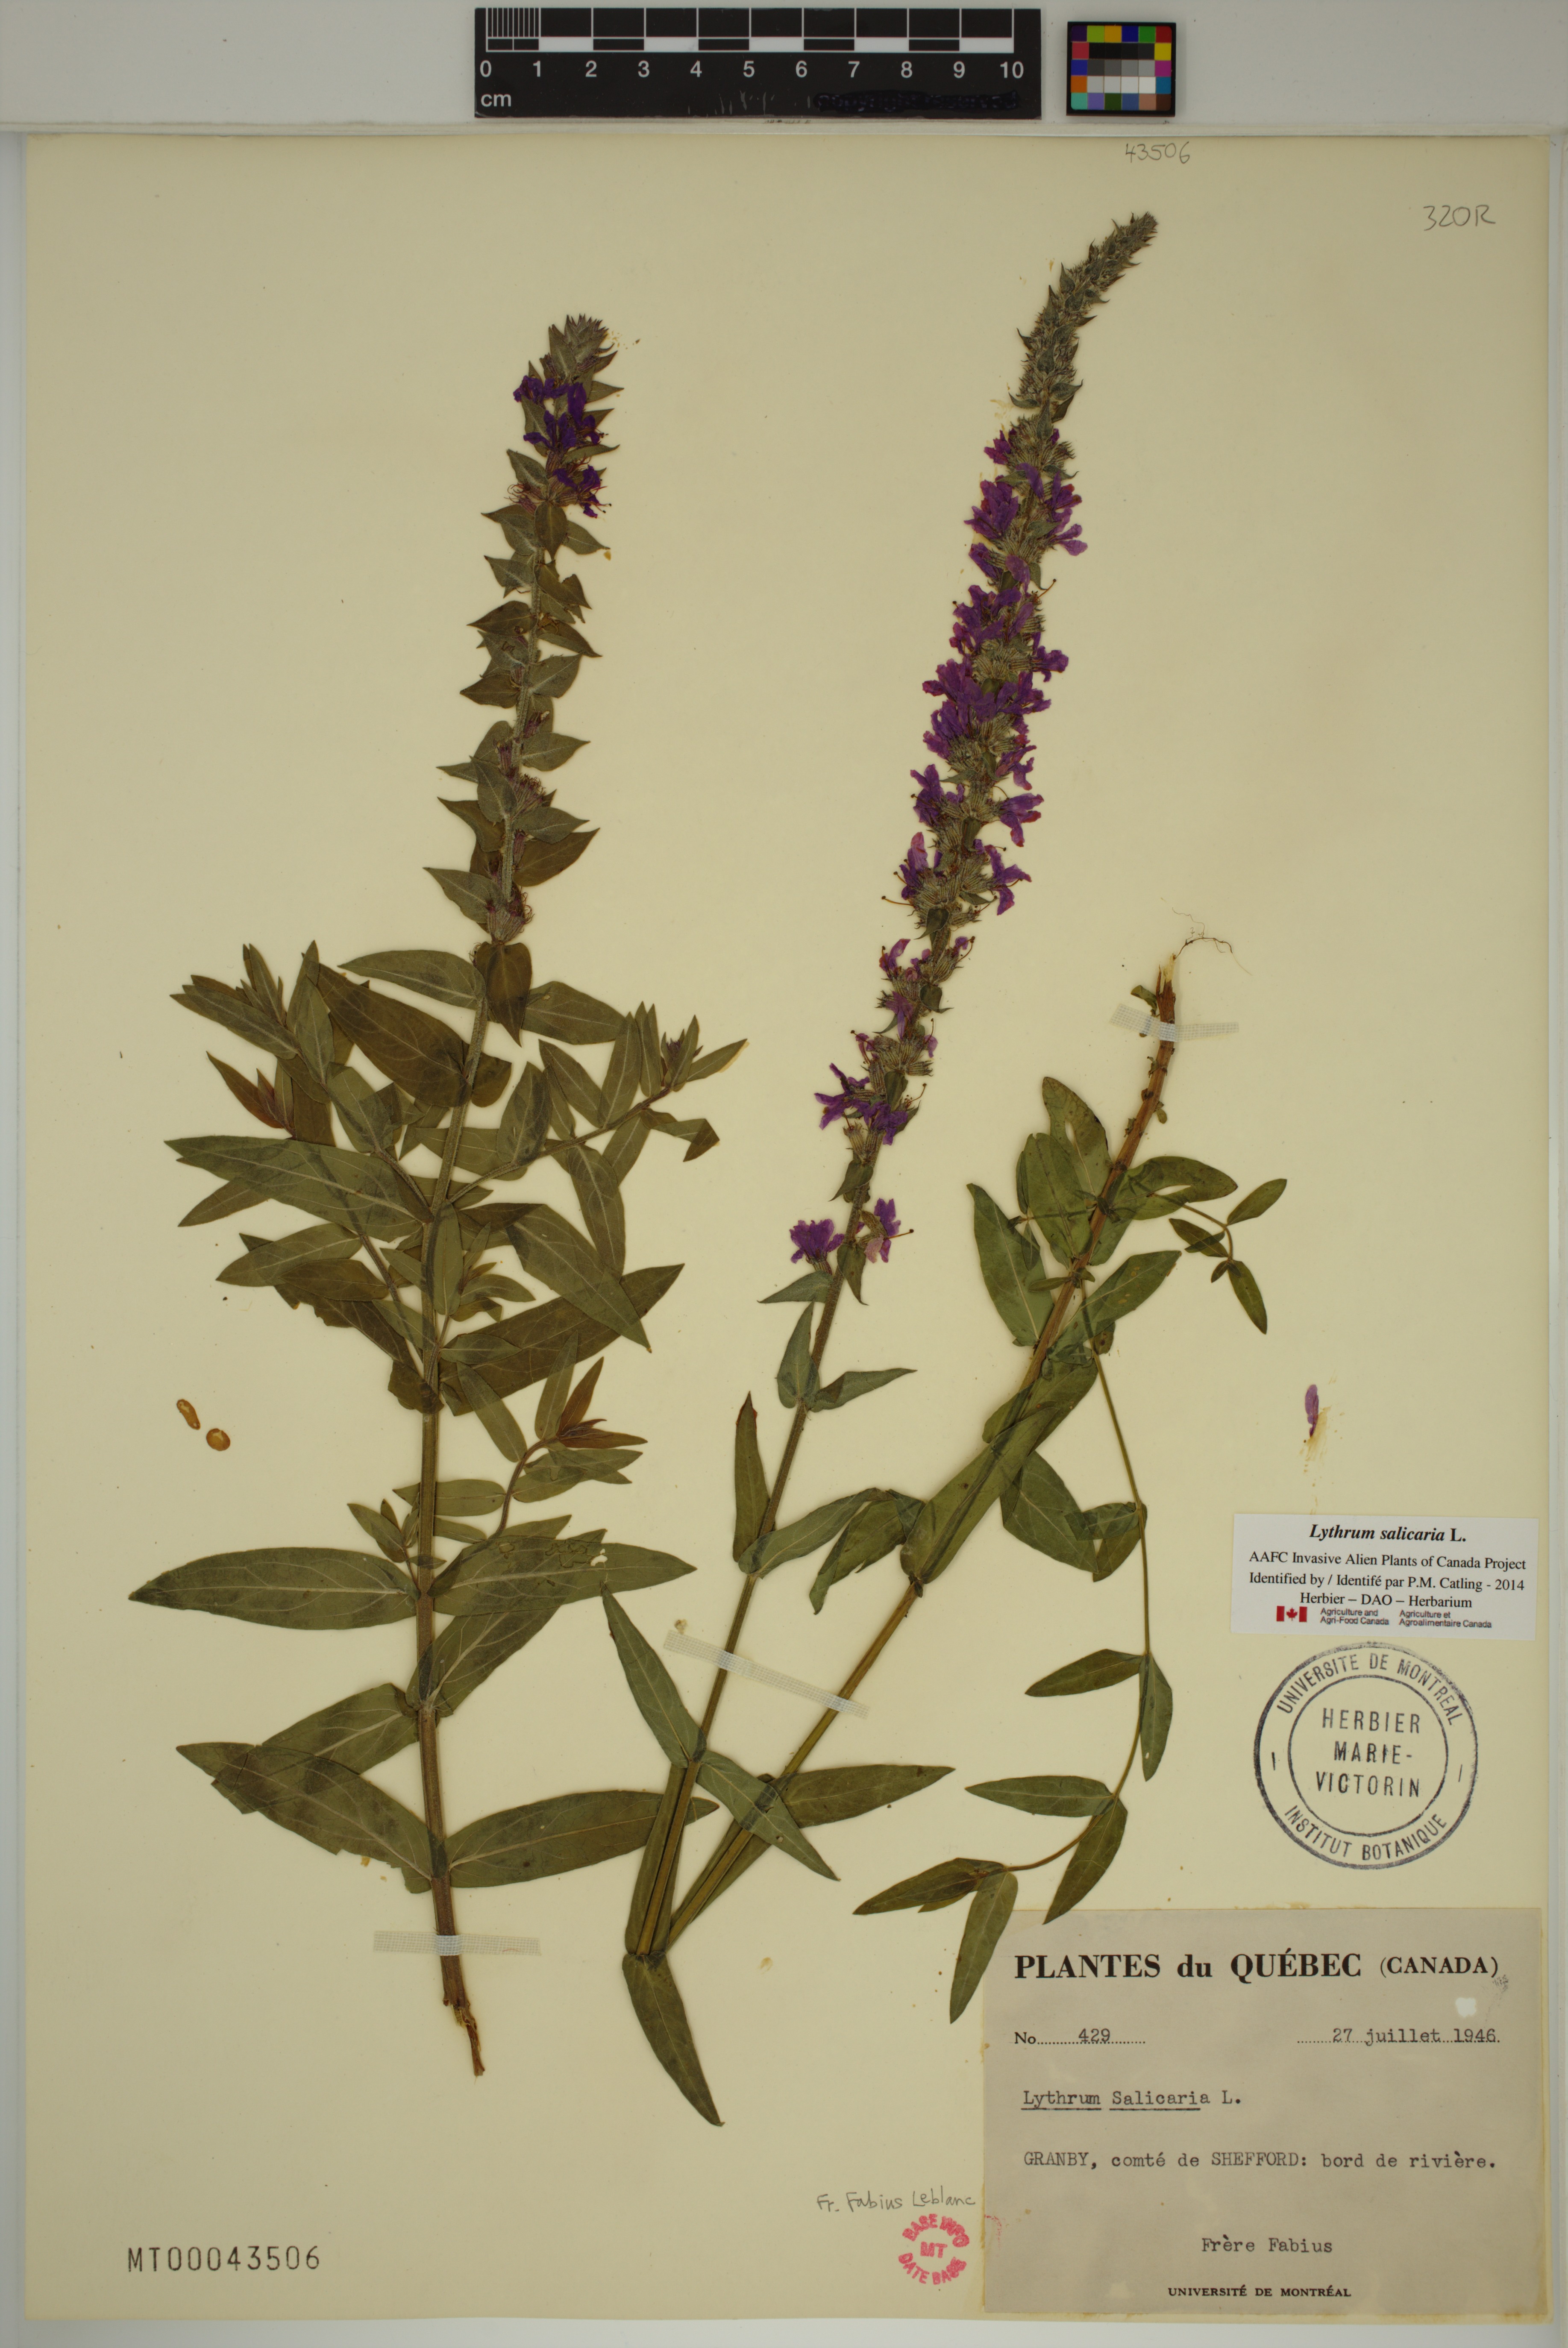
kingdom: Plantae
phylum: Tracheophyta
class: Magnoliopsida
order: Myrtales
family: Lythraceae
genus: Lythrum
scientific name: Lythrum salicaria
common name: Purple loosestrife
